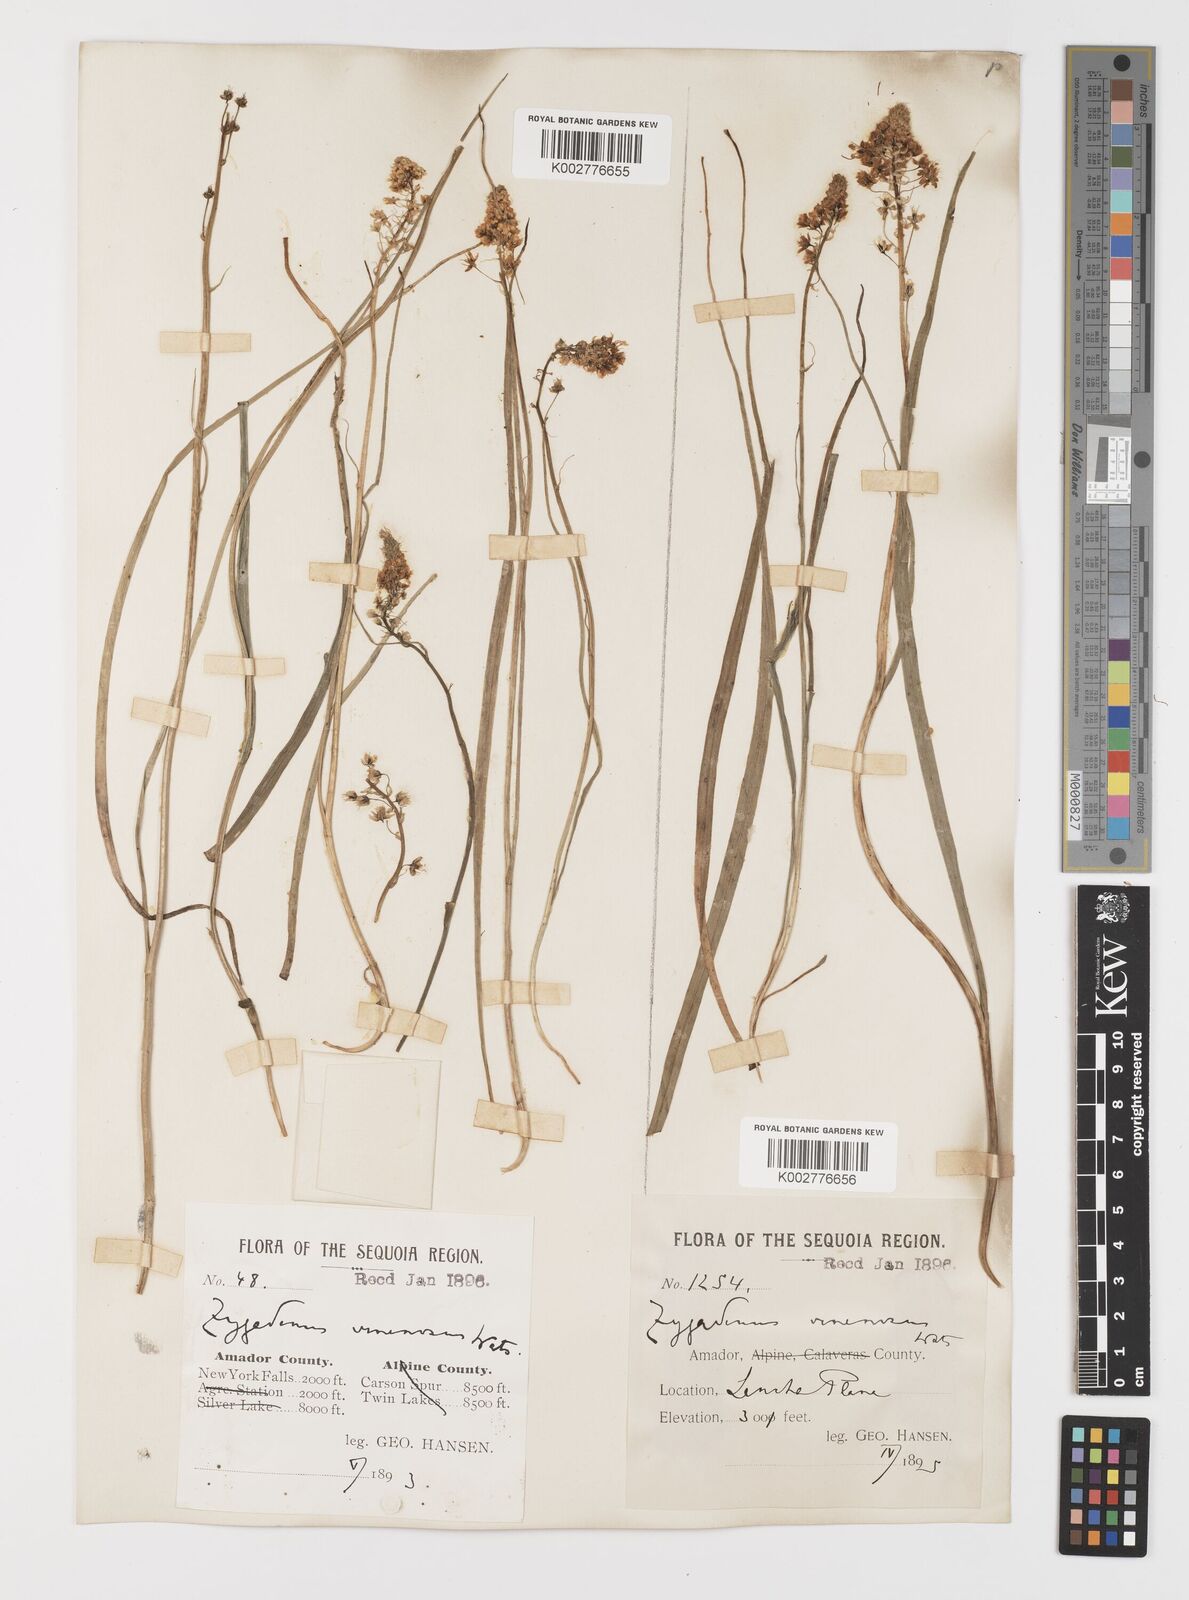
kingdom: Plantae
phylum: Tracheophyta
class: Liliopsida
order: Liliales
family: Melanthiaceae
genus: Toxicoscordion
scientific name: Toxicoscordion venenosum
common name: Meadow death camas
